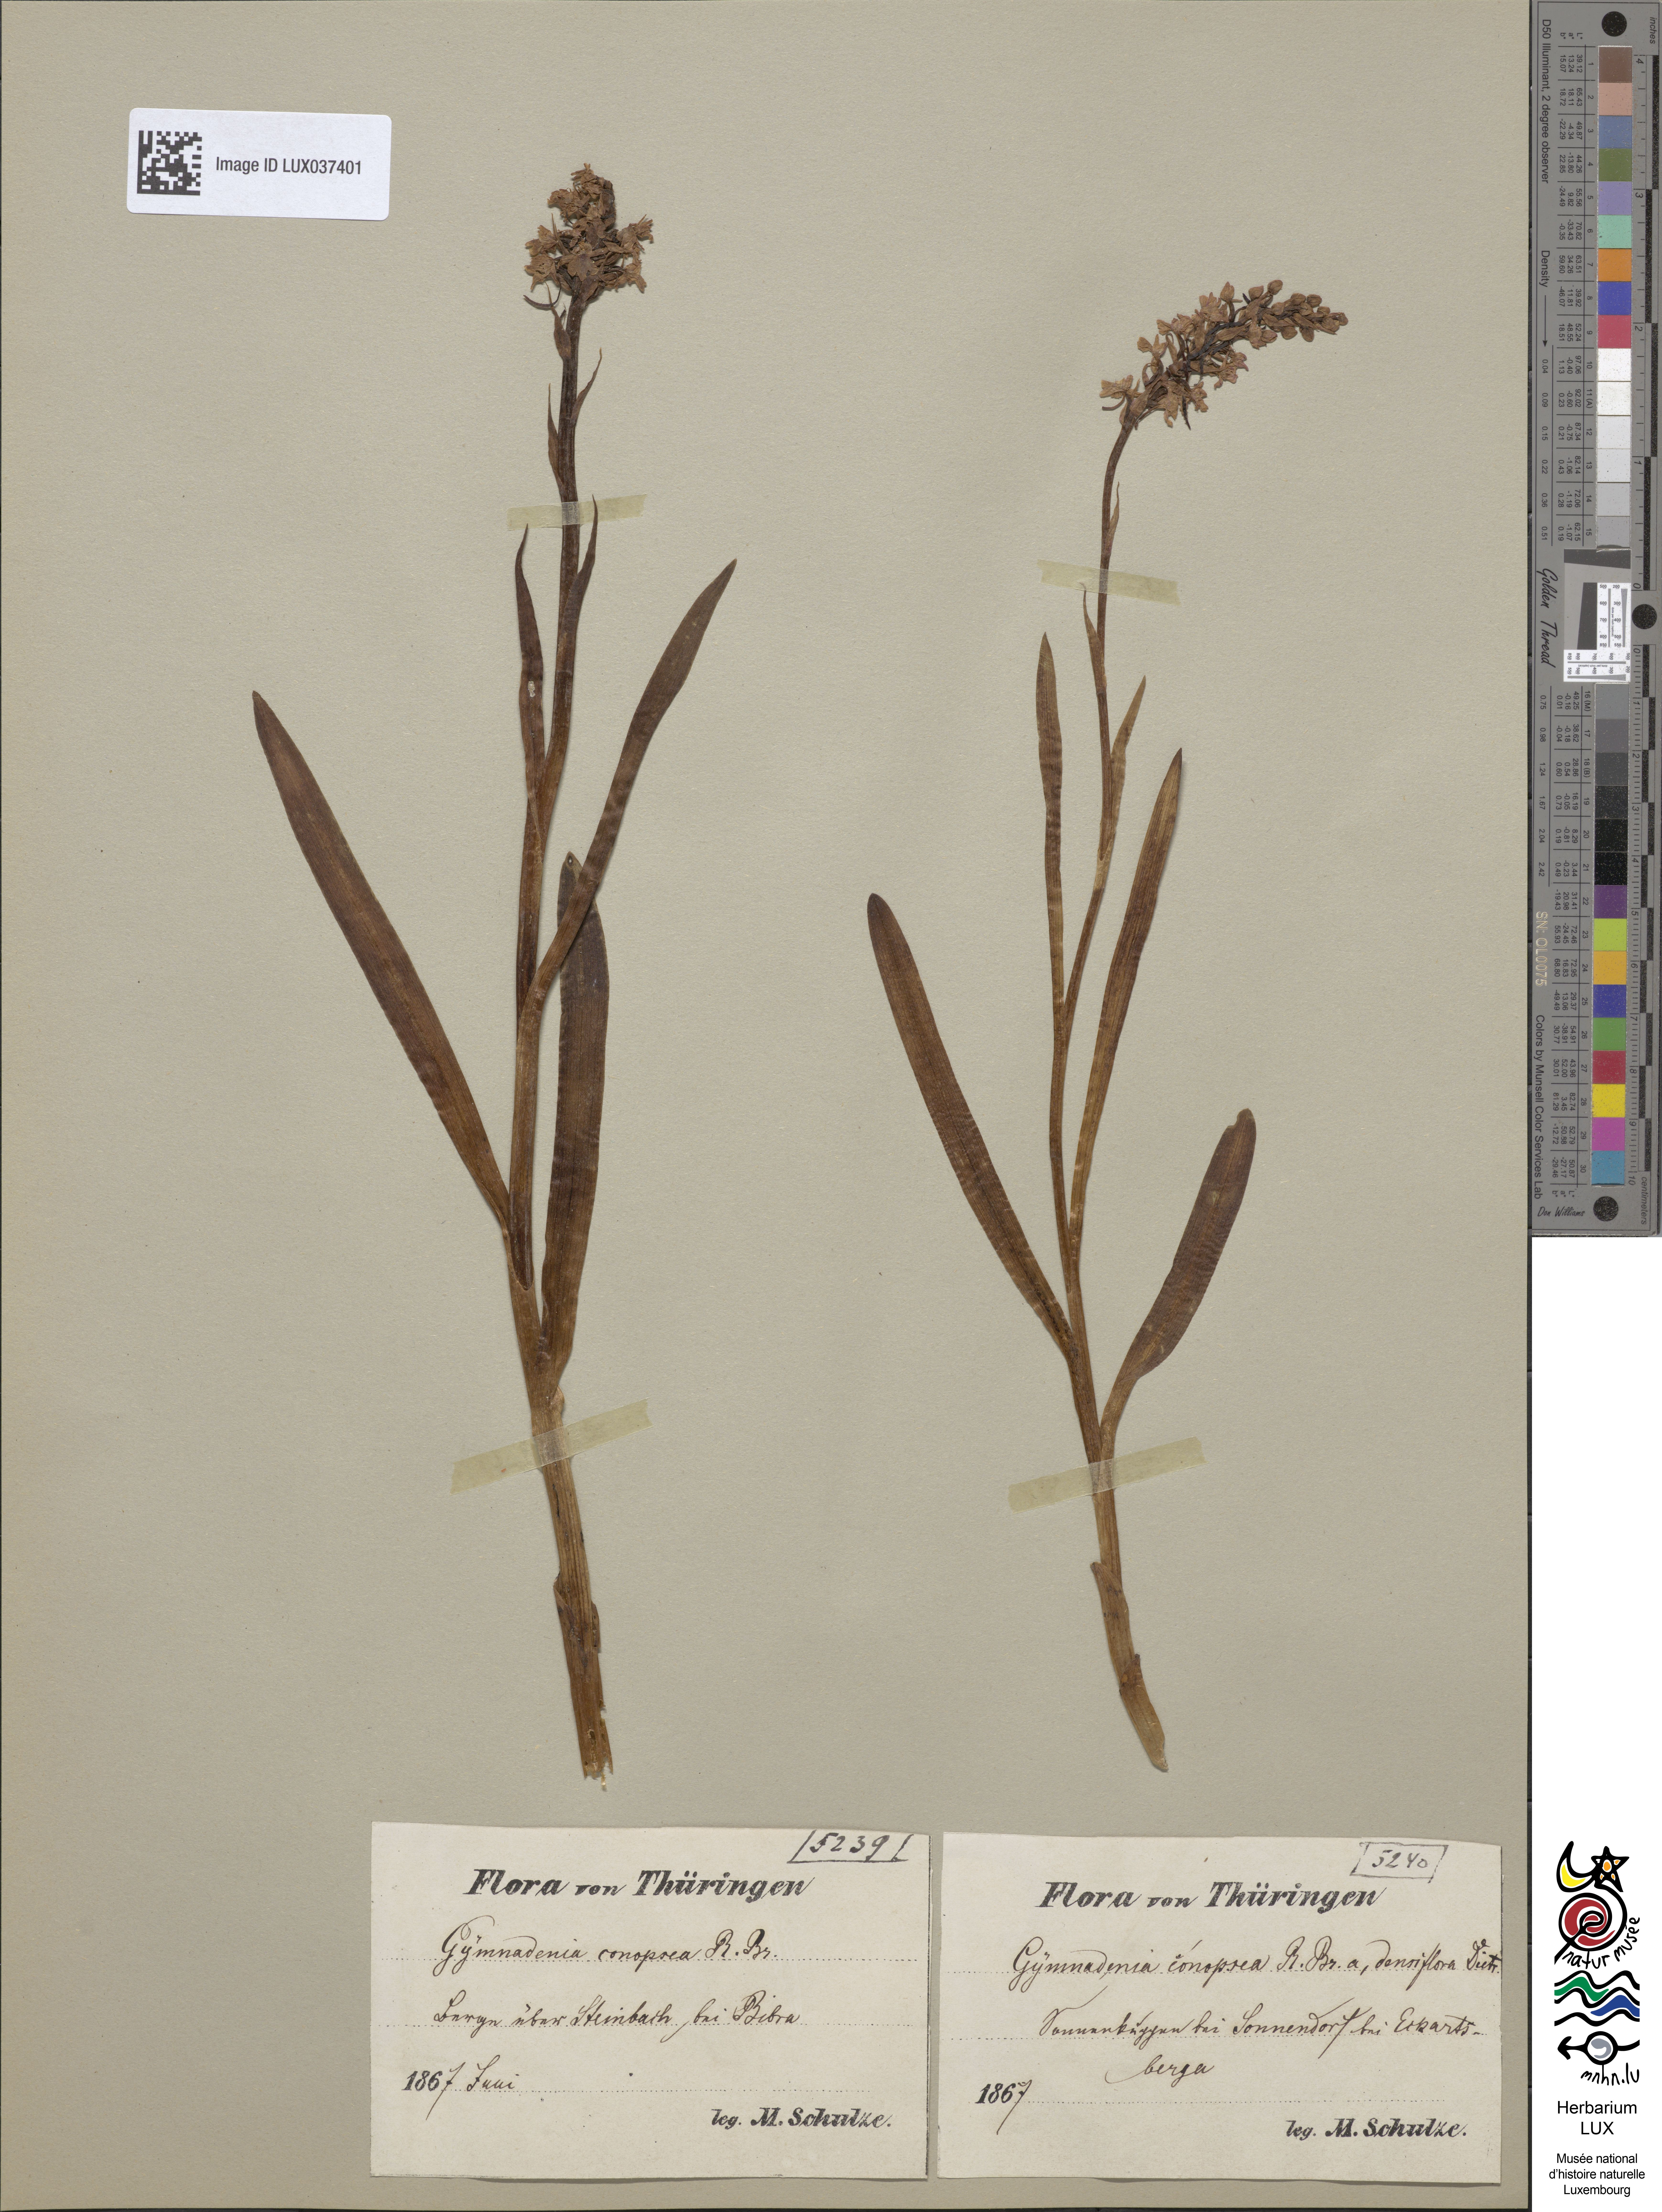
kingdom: Plantae
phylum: Tracheophyta
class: Liliopsida
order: Asparagales
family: Orchidaceae
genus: Gymnadenia
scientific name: Gymnadenia conopsea
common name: Fragrant orchid
